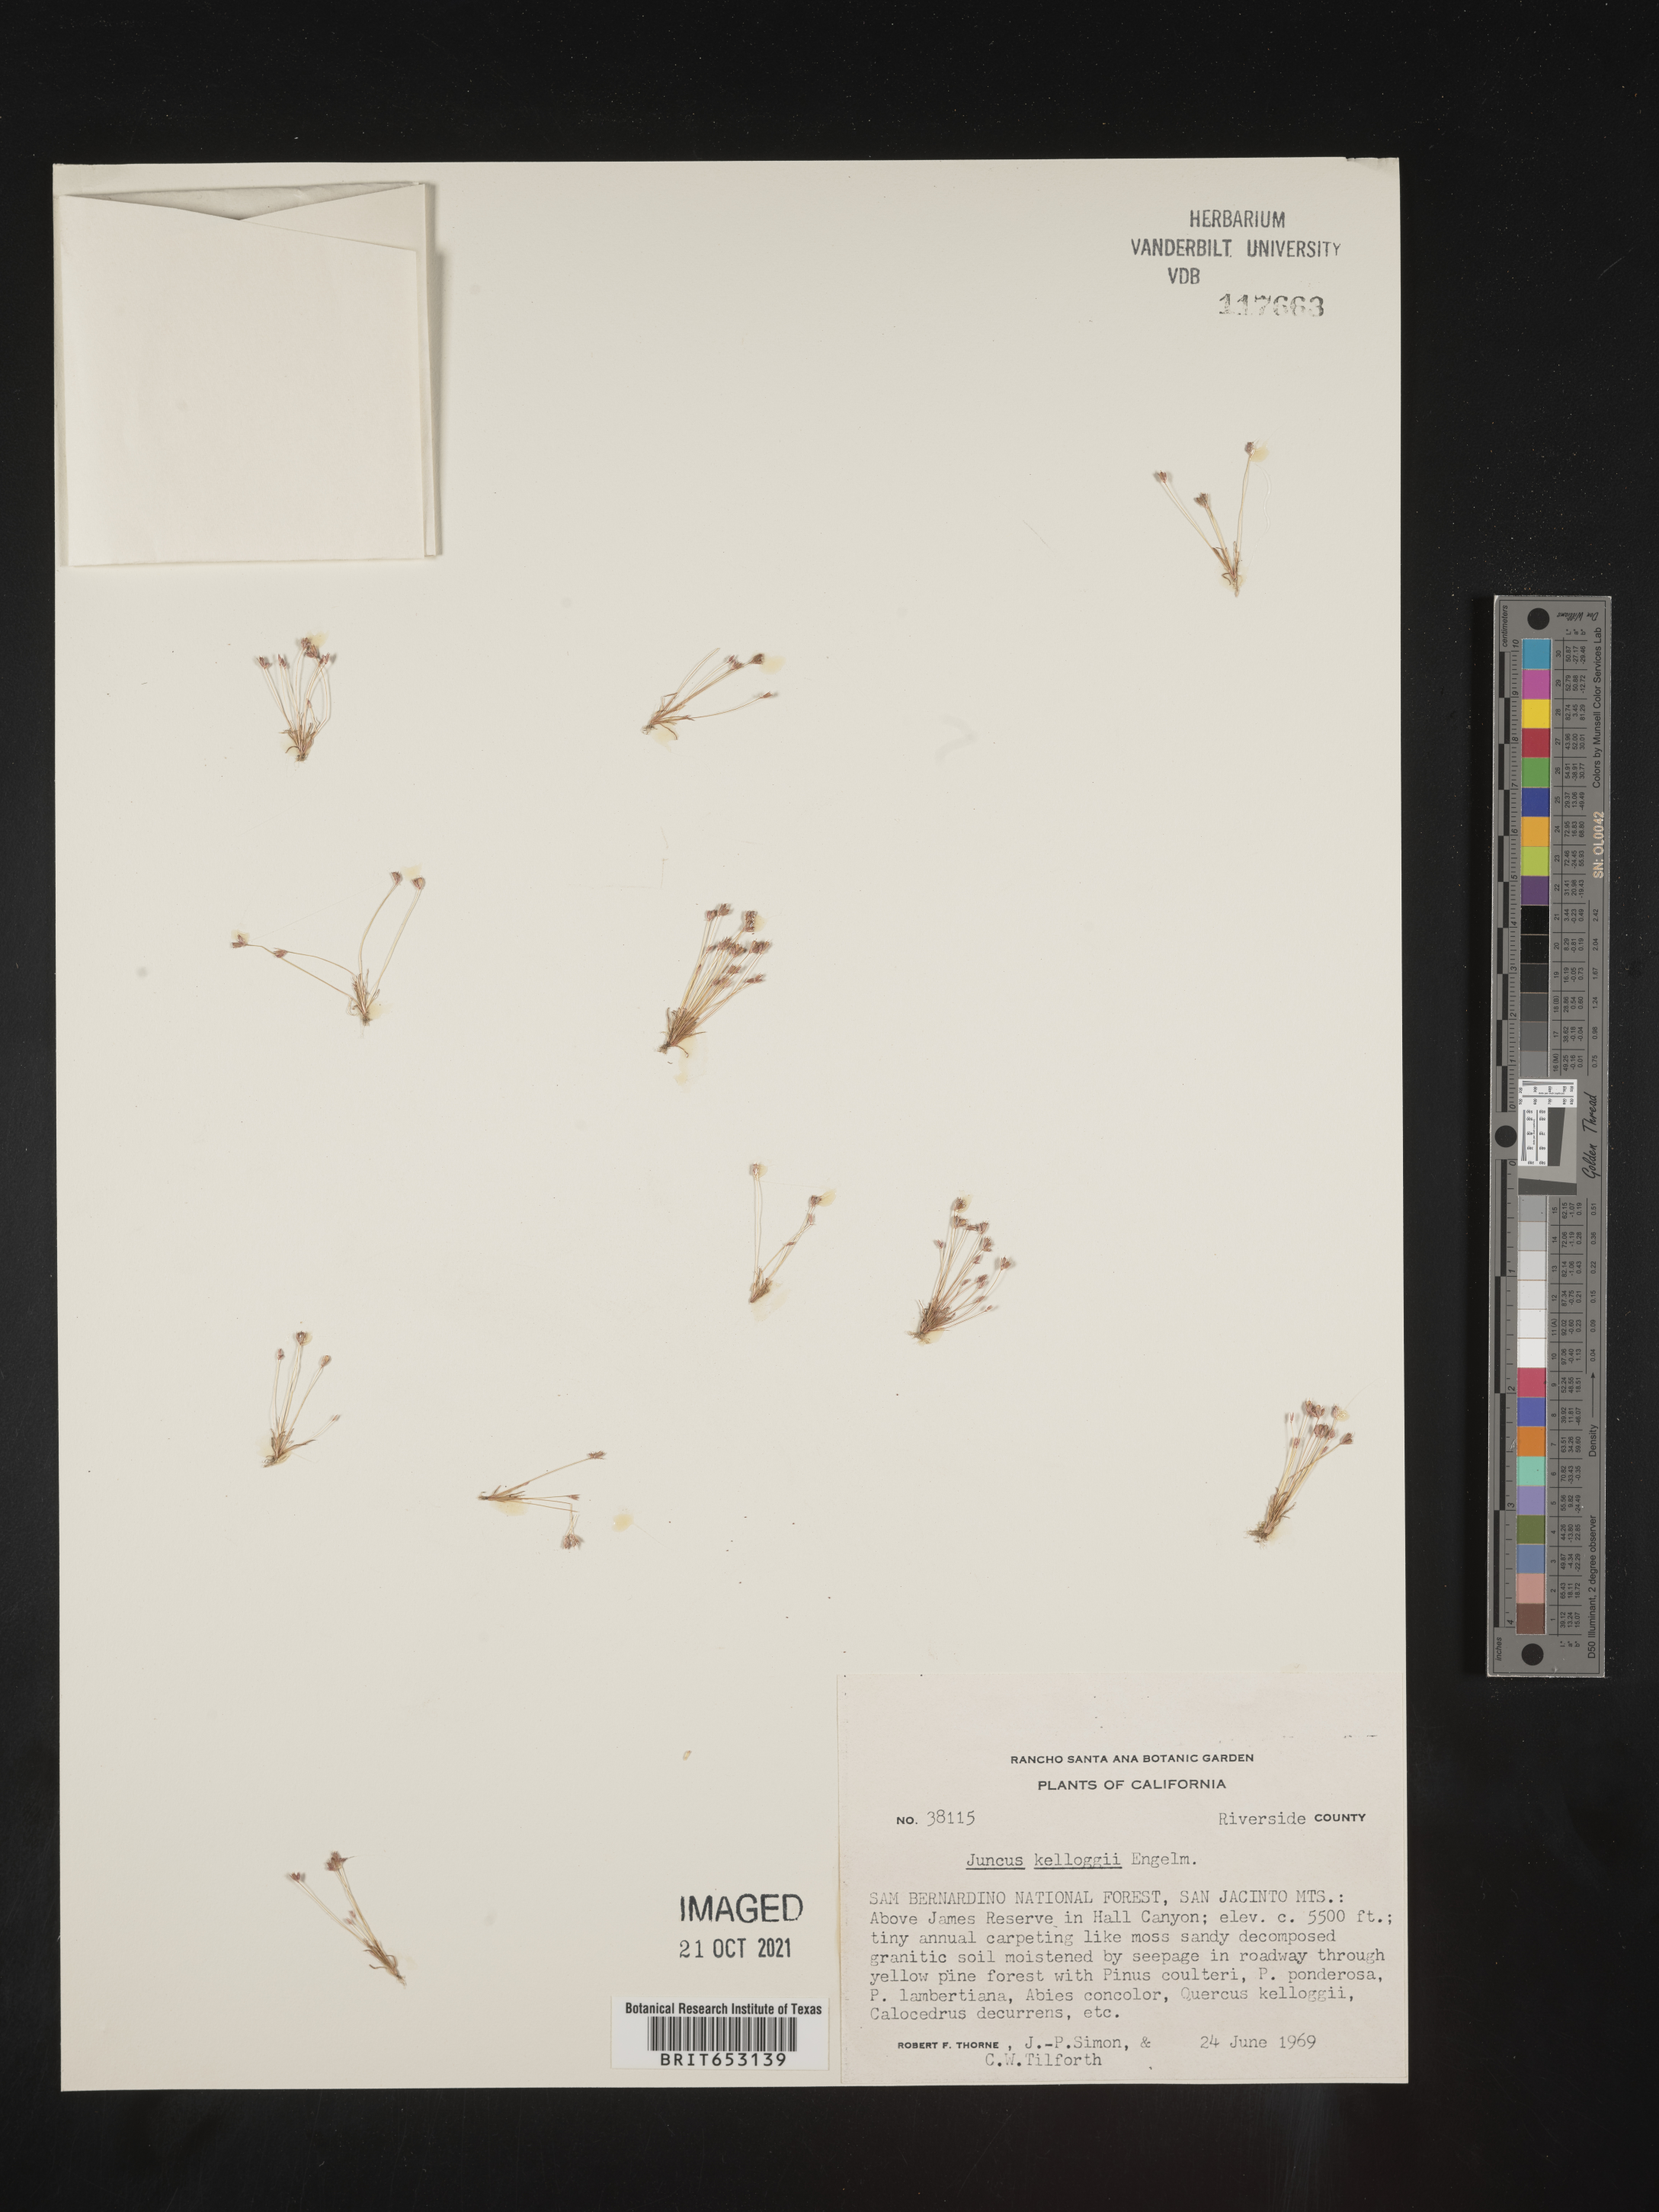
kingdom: Plantae
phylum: Tracheophyta
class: Liliopsida
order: Poales
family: Juncaceae
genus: Juncus
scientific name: Juncus kelloggii
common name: Kellogg's dwarf rush
